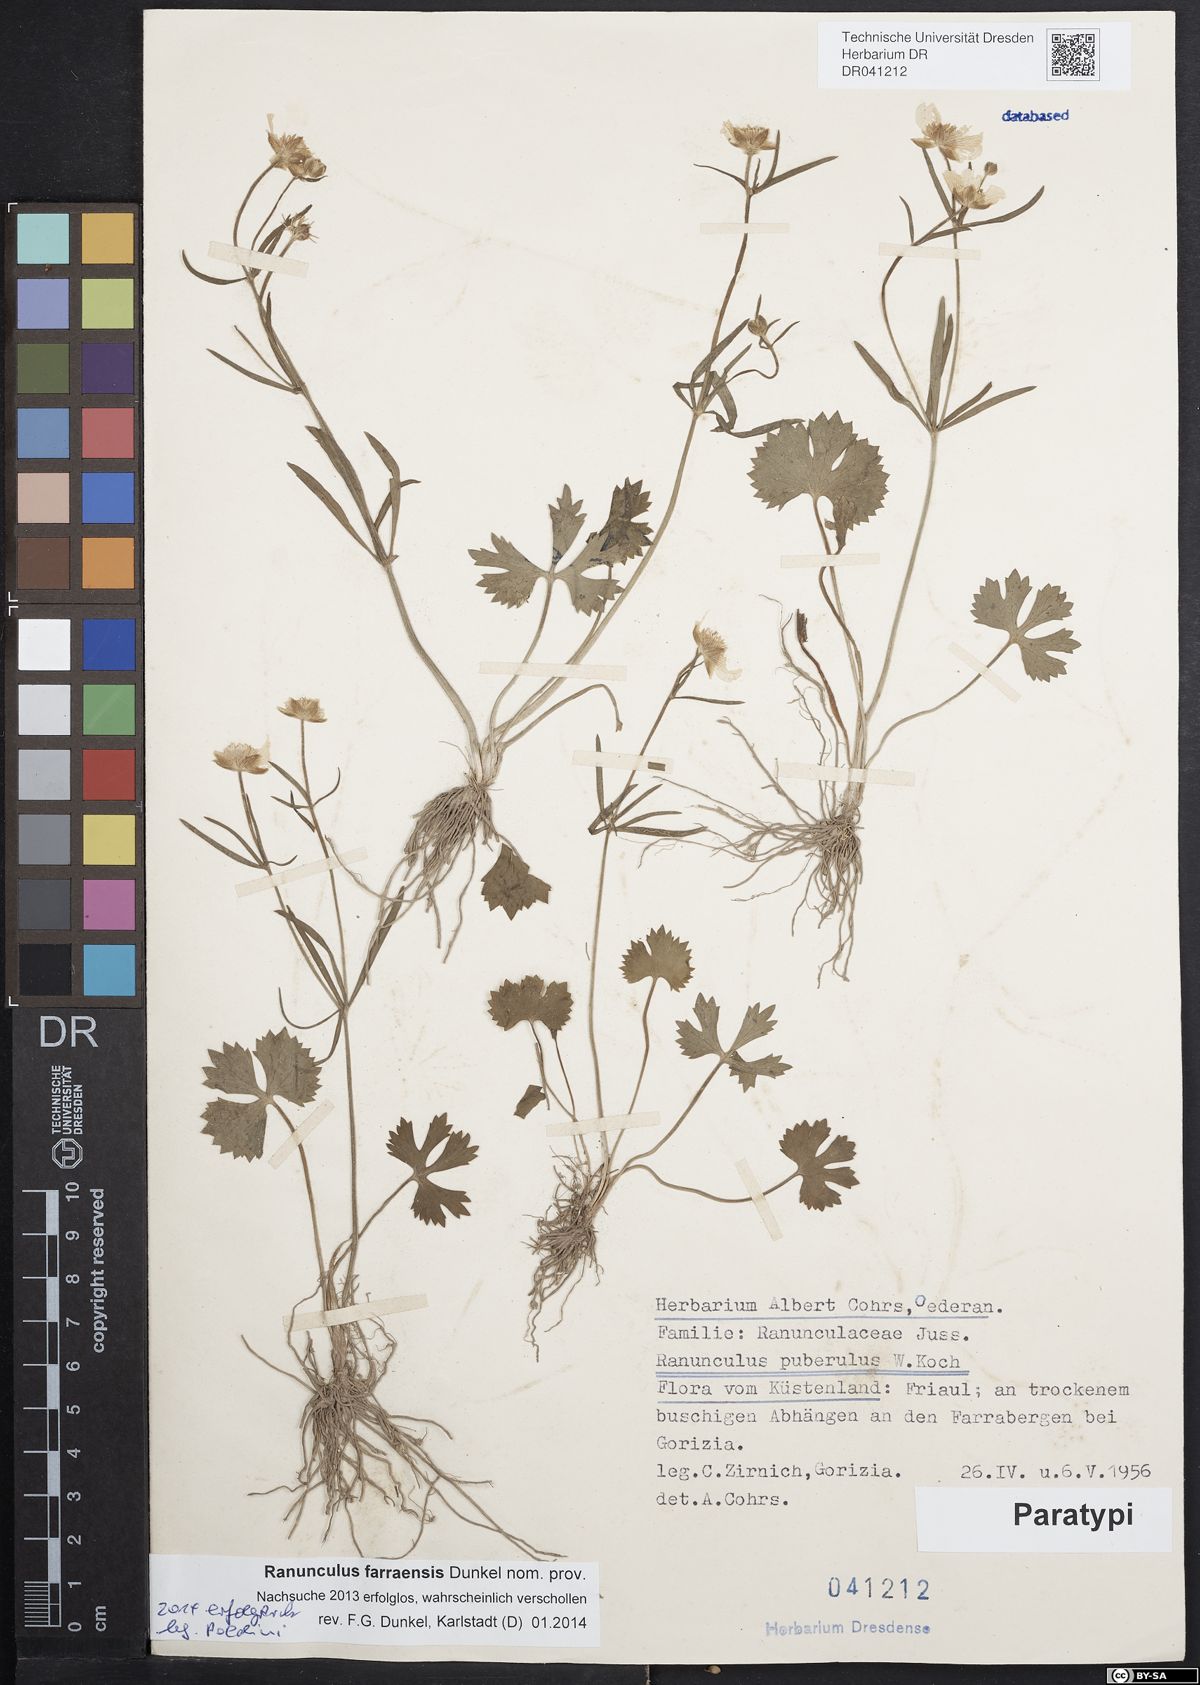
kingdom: Plantae
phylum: Tracheophyta
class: Magnoliopsida
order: Ranunculales
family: Ranunculaceae
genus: Ranunculus
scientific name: Ranunculus farraensis
